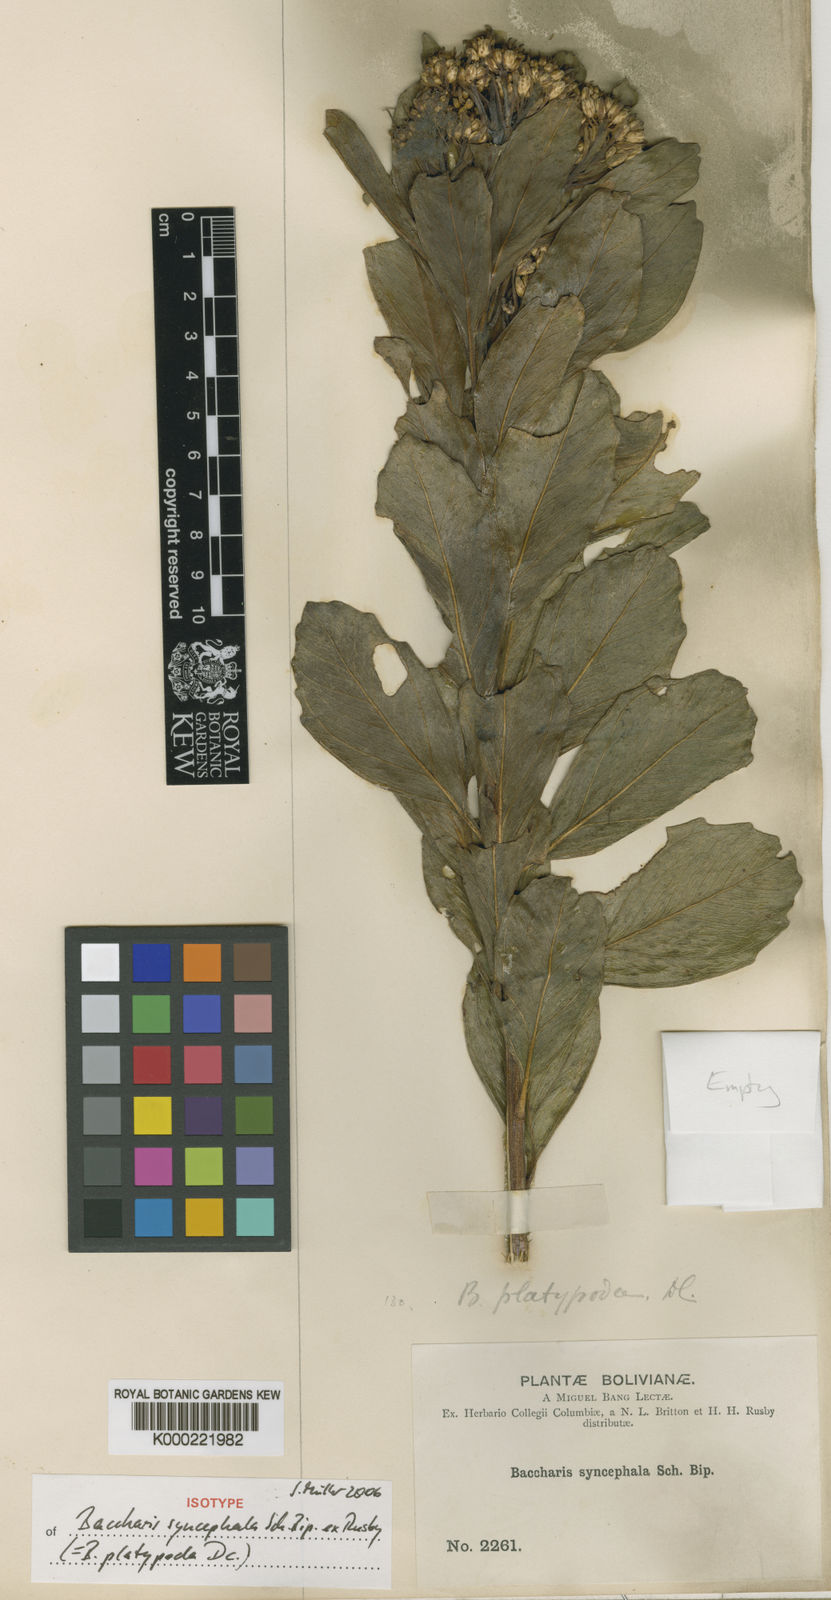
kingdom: Plantae
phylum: Tracheophyta
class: Magnoliopsida
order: Asterales
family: Asteraceae
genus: Baccharis
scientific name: Baccharis platypoda
